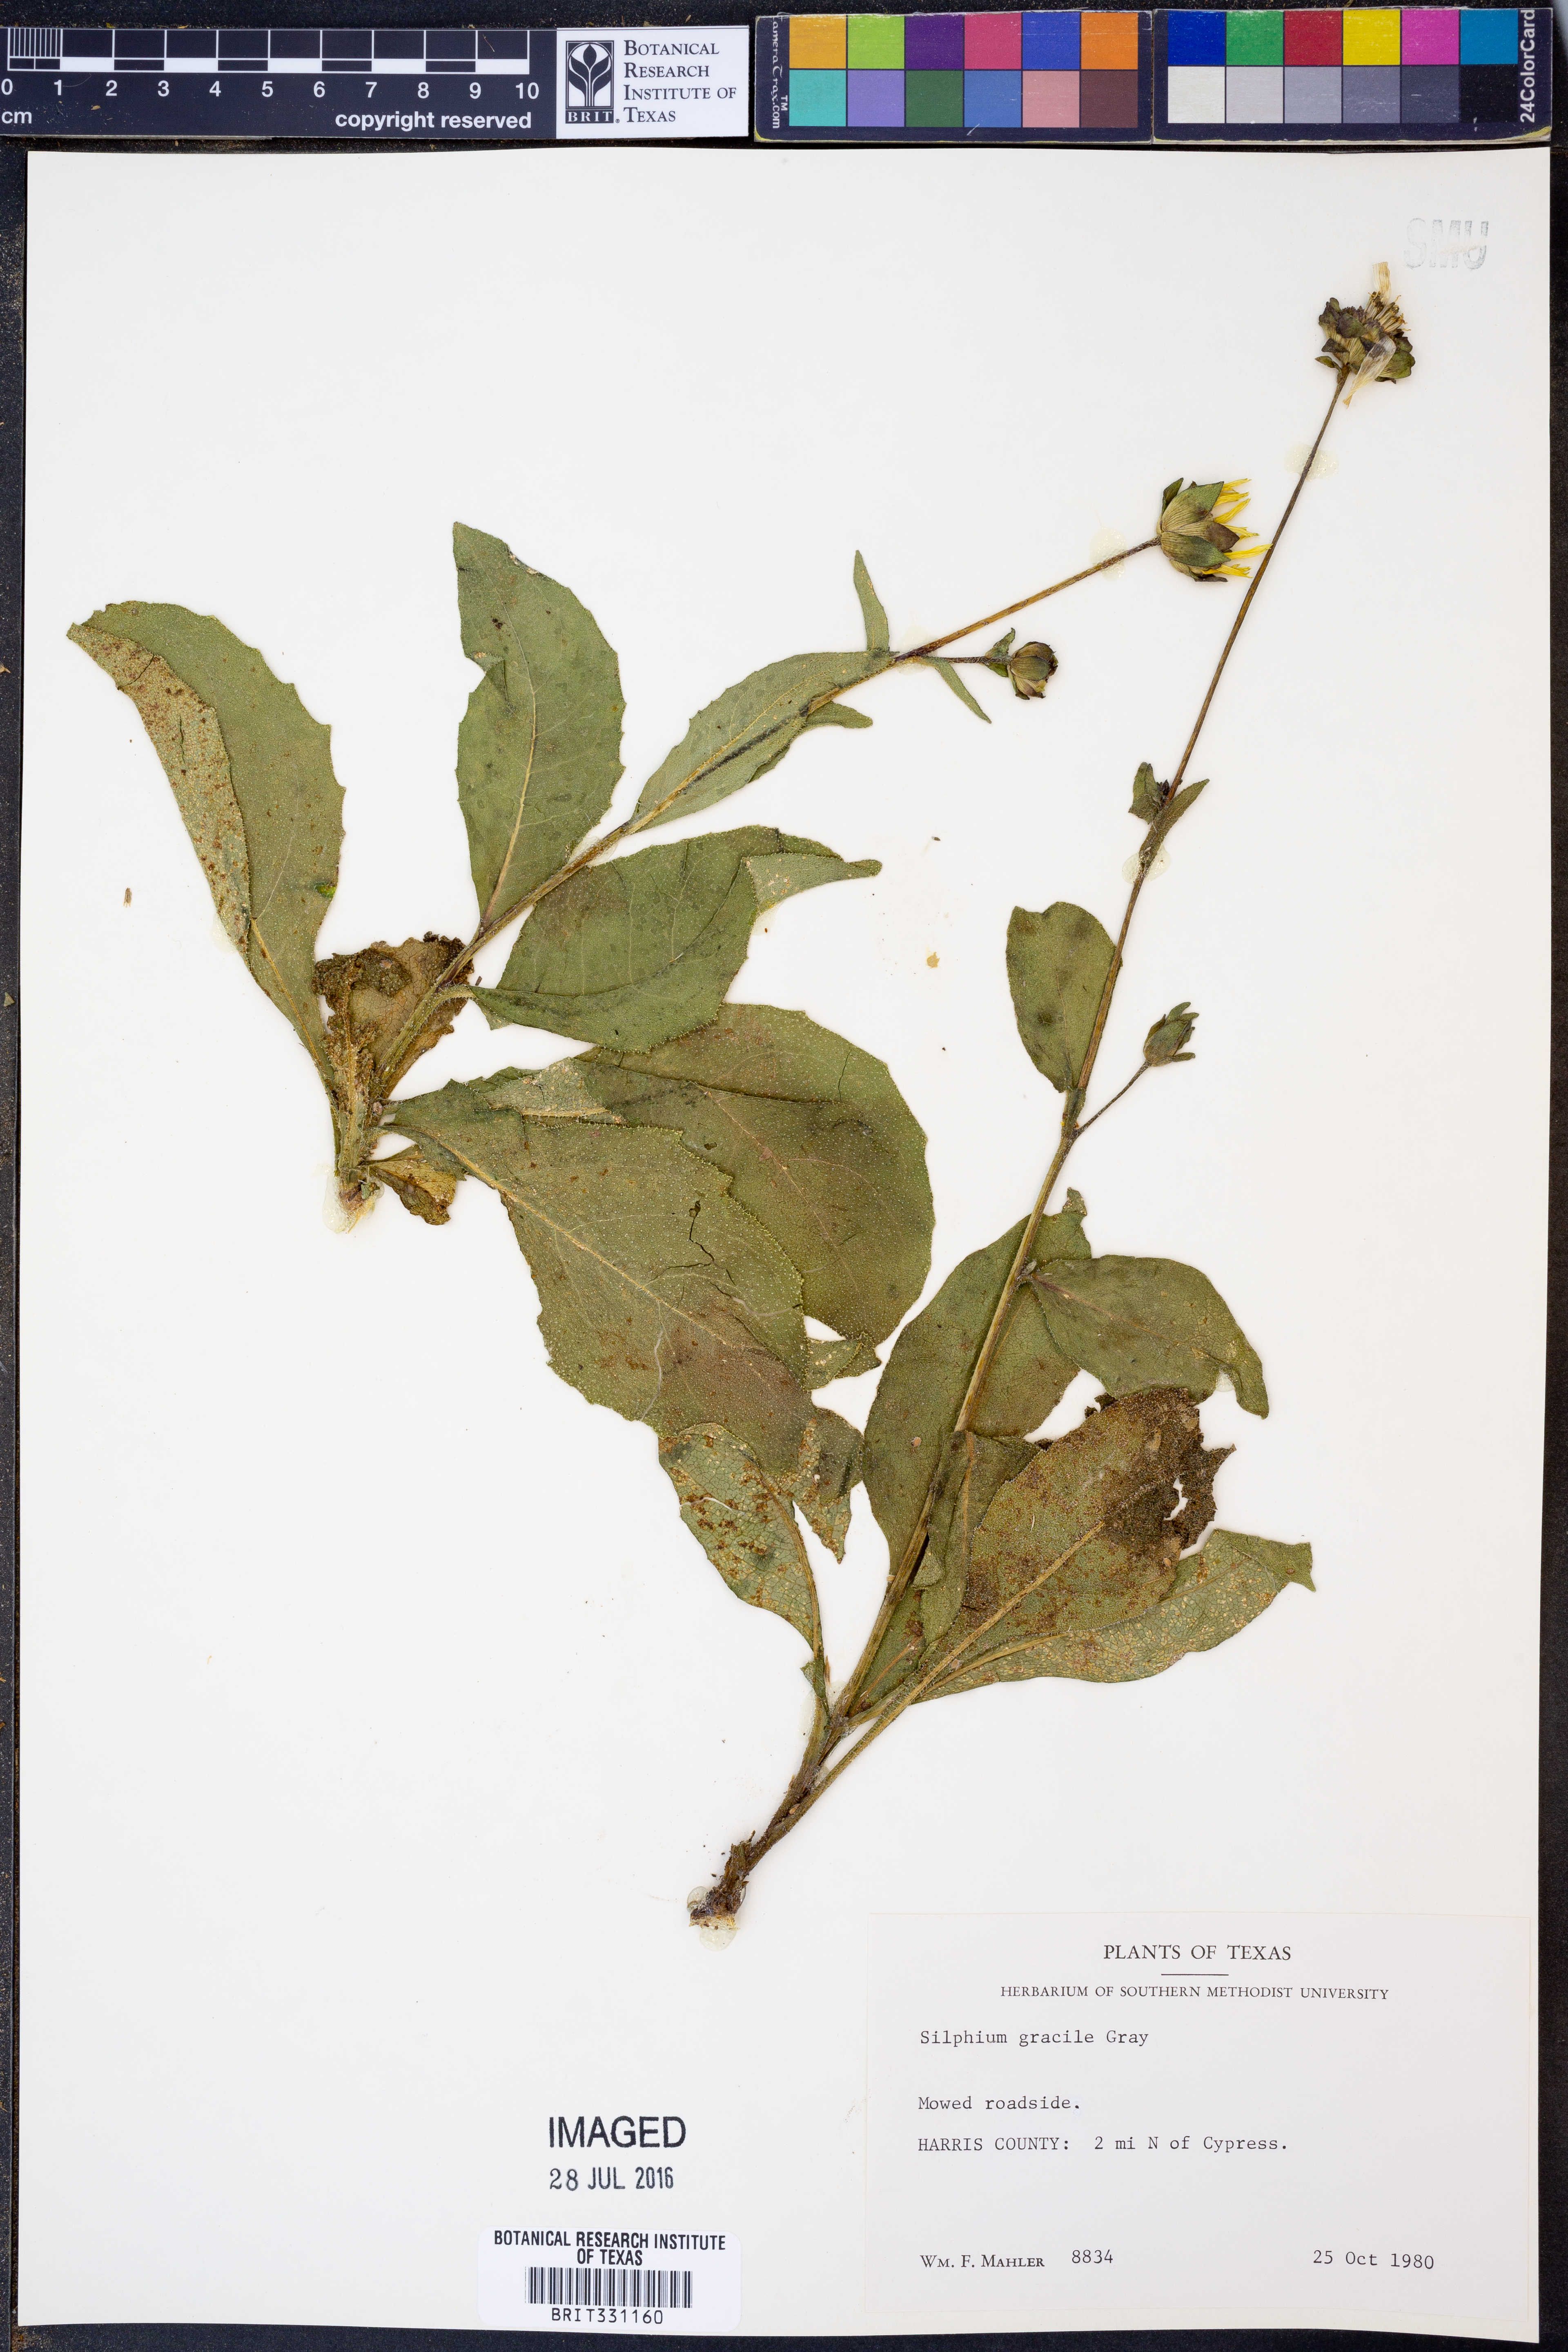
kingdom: Plantae
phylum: Tracheophyta
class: Magnoliopsida
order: Asterales
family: Asteraceae
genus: Silphium
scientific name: Silphium radula
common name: Roughleaf rosinweed
